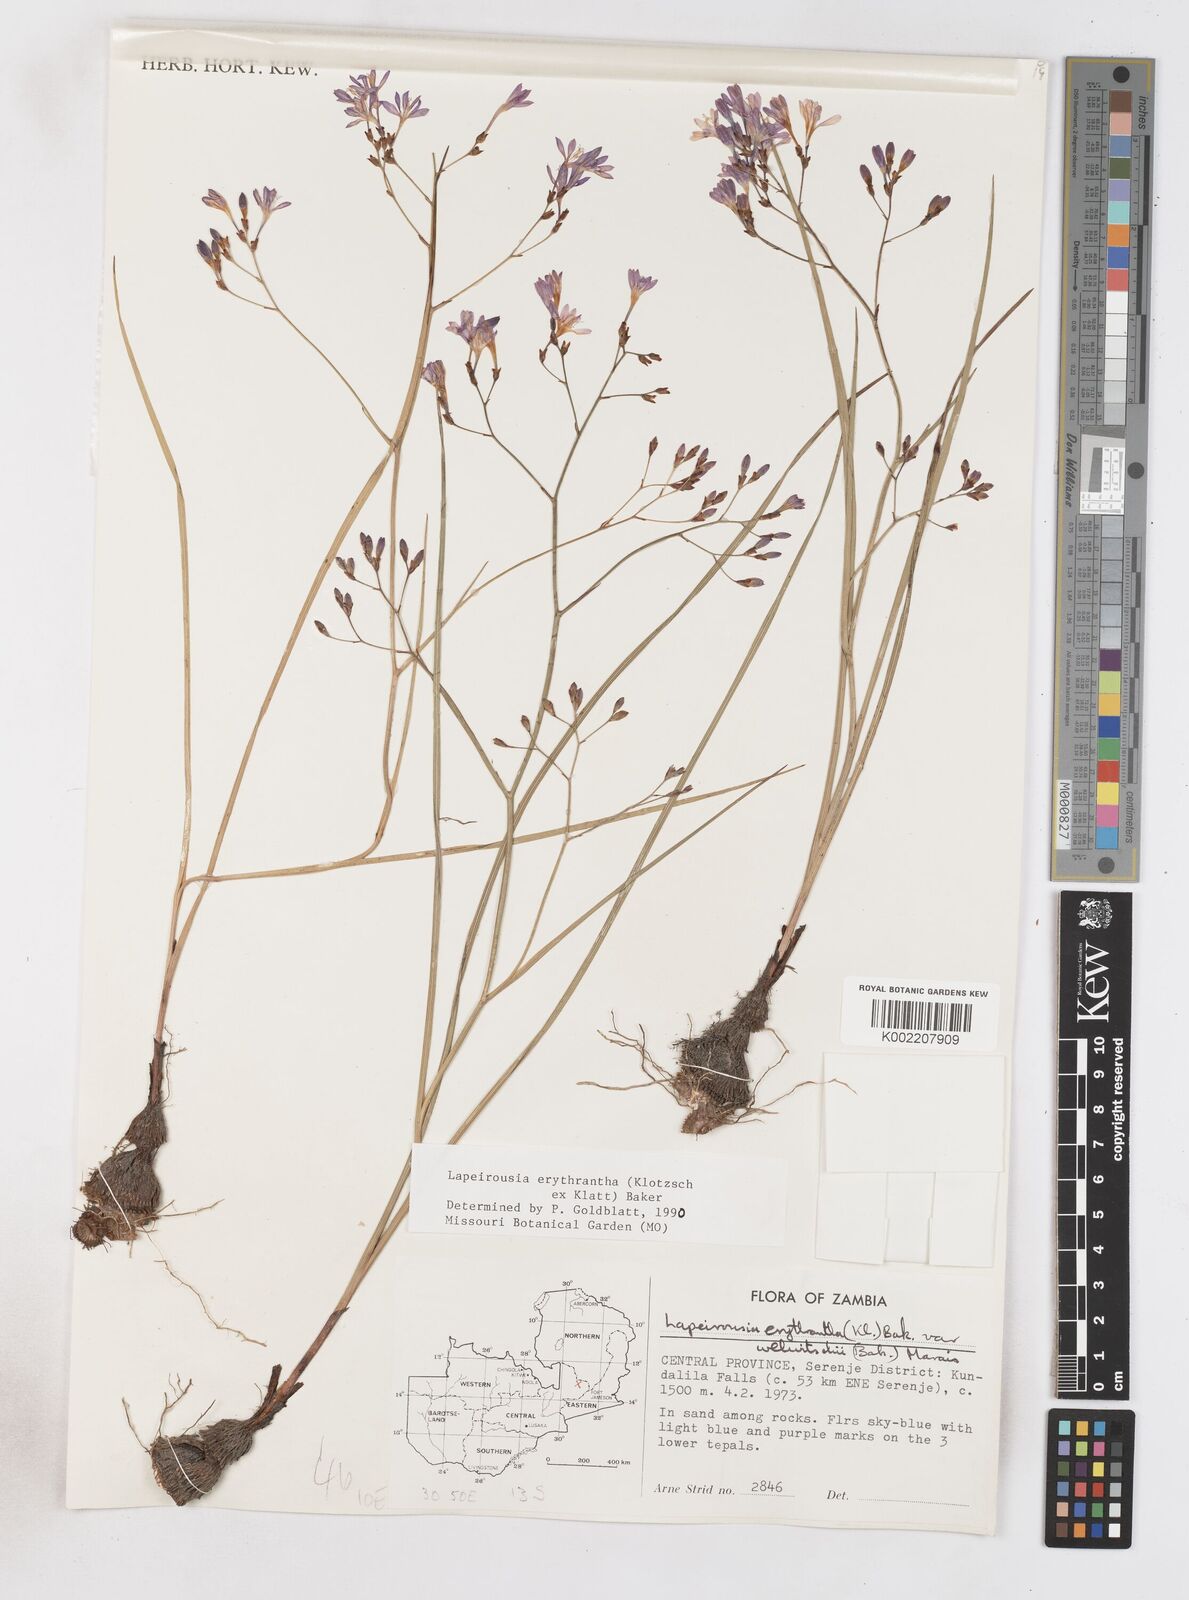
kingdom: Plantae
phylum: Tracheophyta
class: Liliopsida
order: Asparagales
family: Iridaceae
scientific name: Iridaceae
